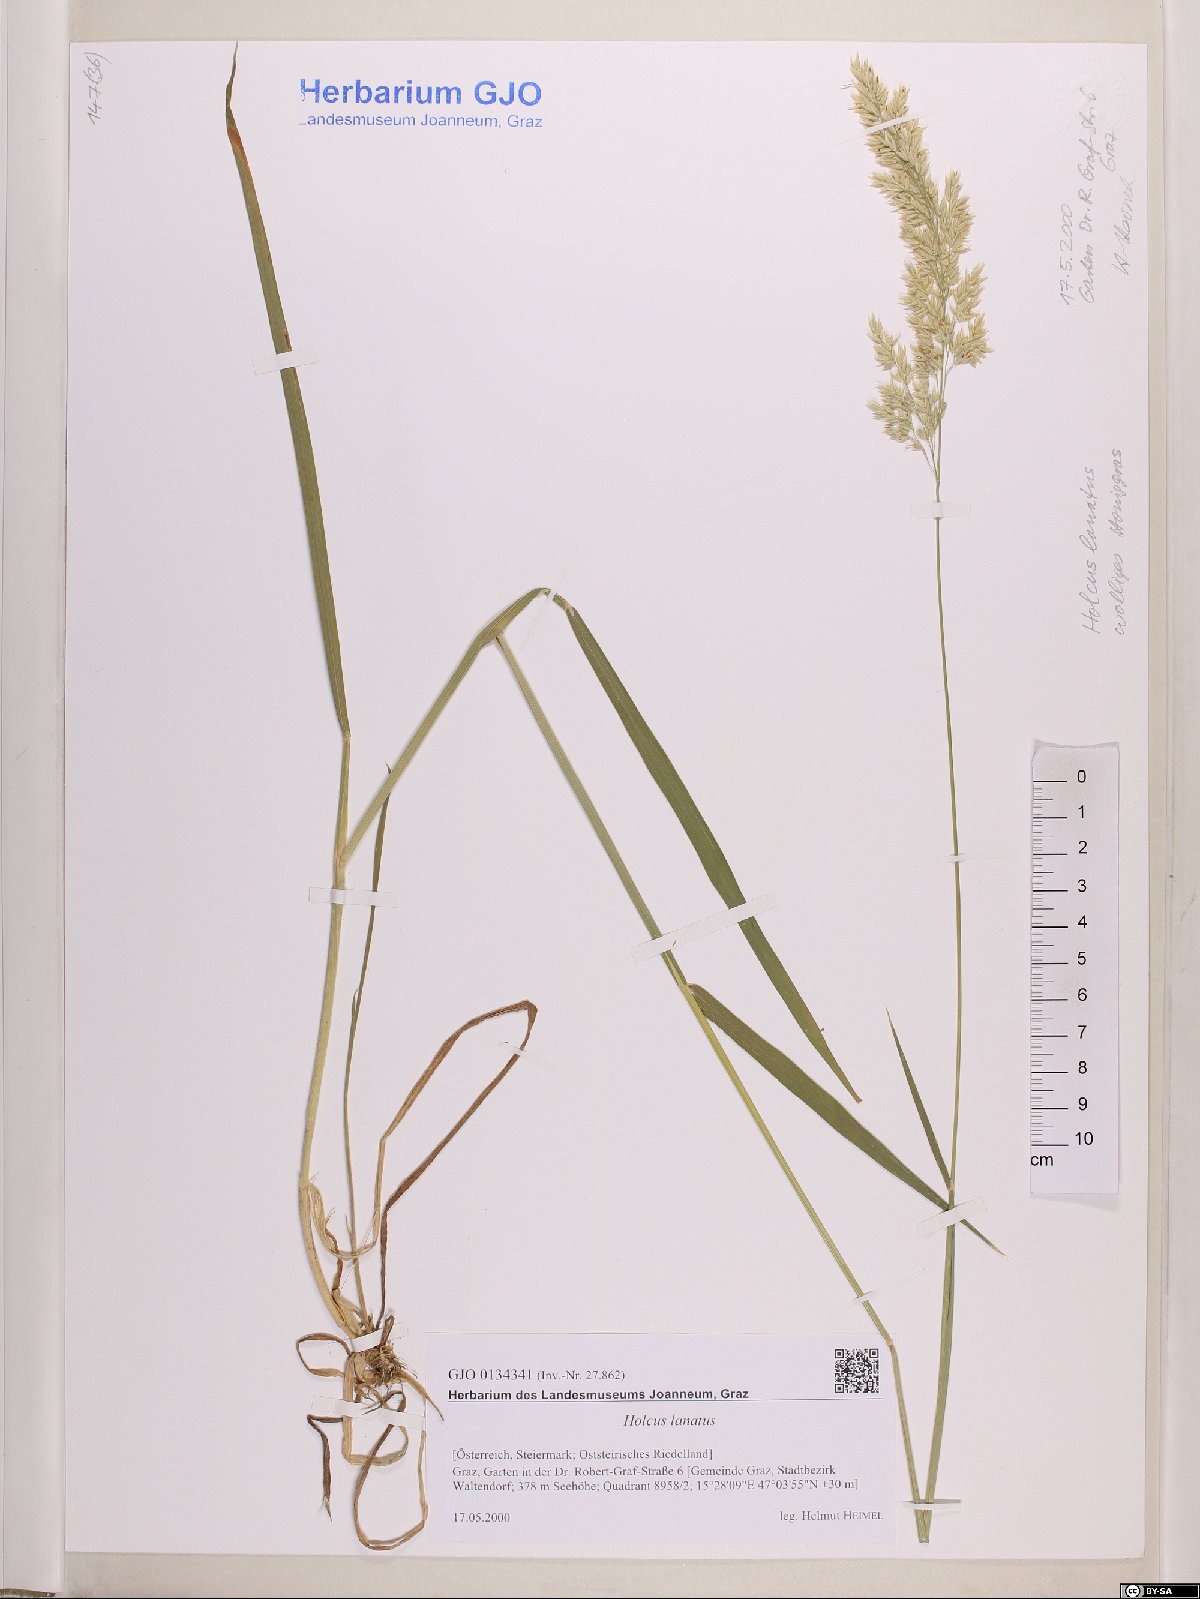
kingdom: Plantae
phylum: Tracheophyta
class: Liliopsida
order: Poales
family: Poaceae
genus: Holcus
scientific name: Holcus lanatus
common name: Yorkshire-fog
